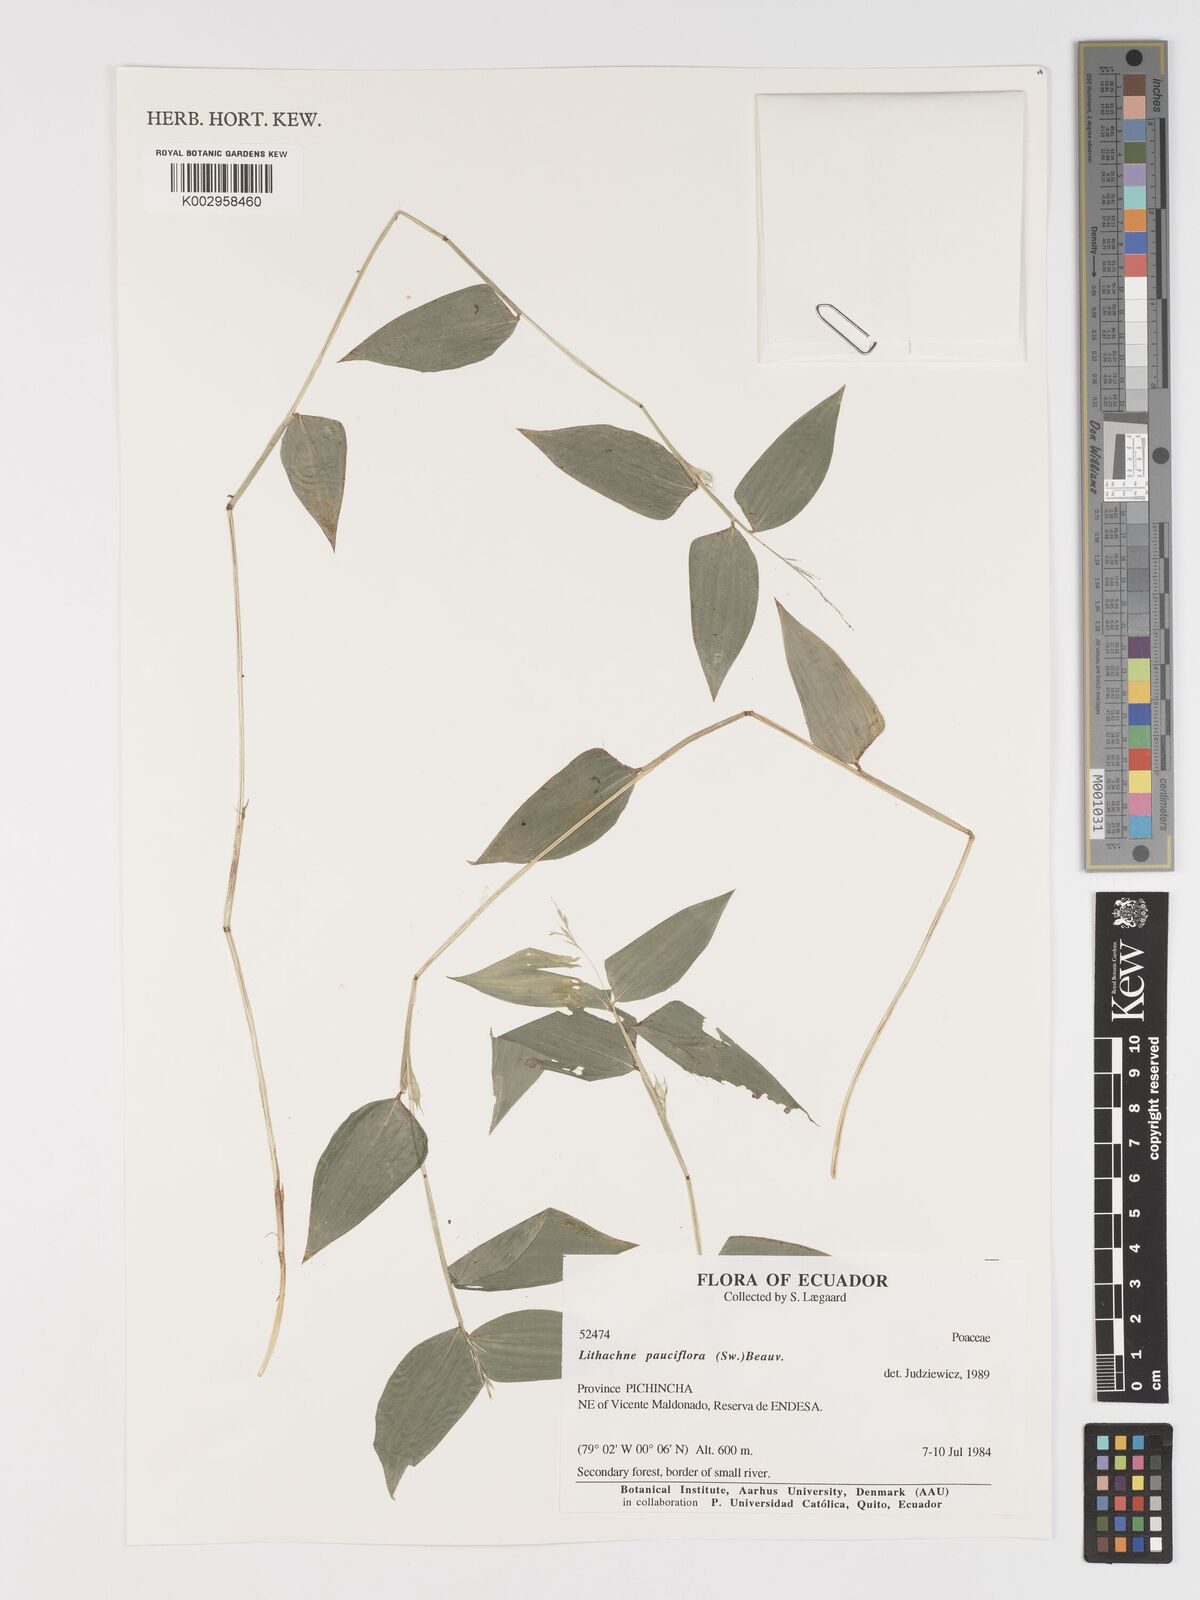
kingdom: Plantae
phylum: Tracheophyta
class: Liliopsida
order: Poales
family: Poaceae
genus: Lithachne
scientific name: Lithachne pauciflora
